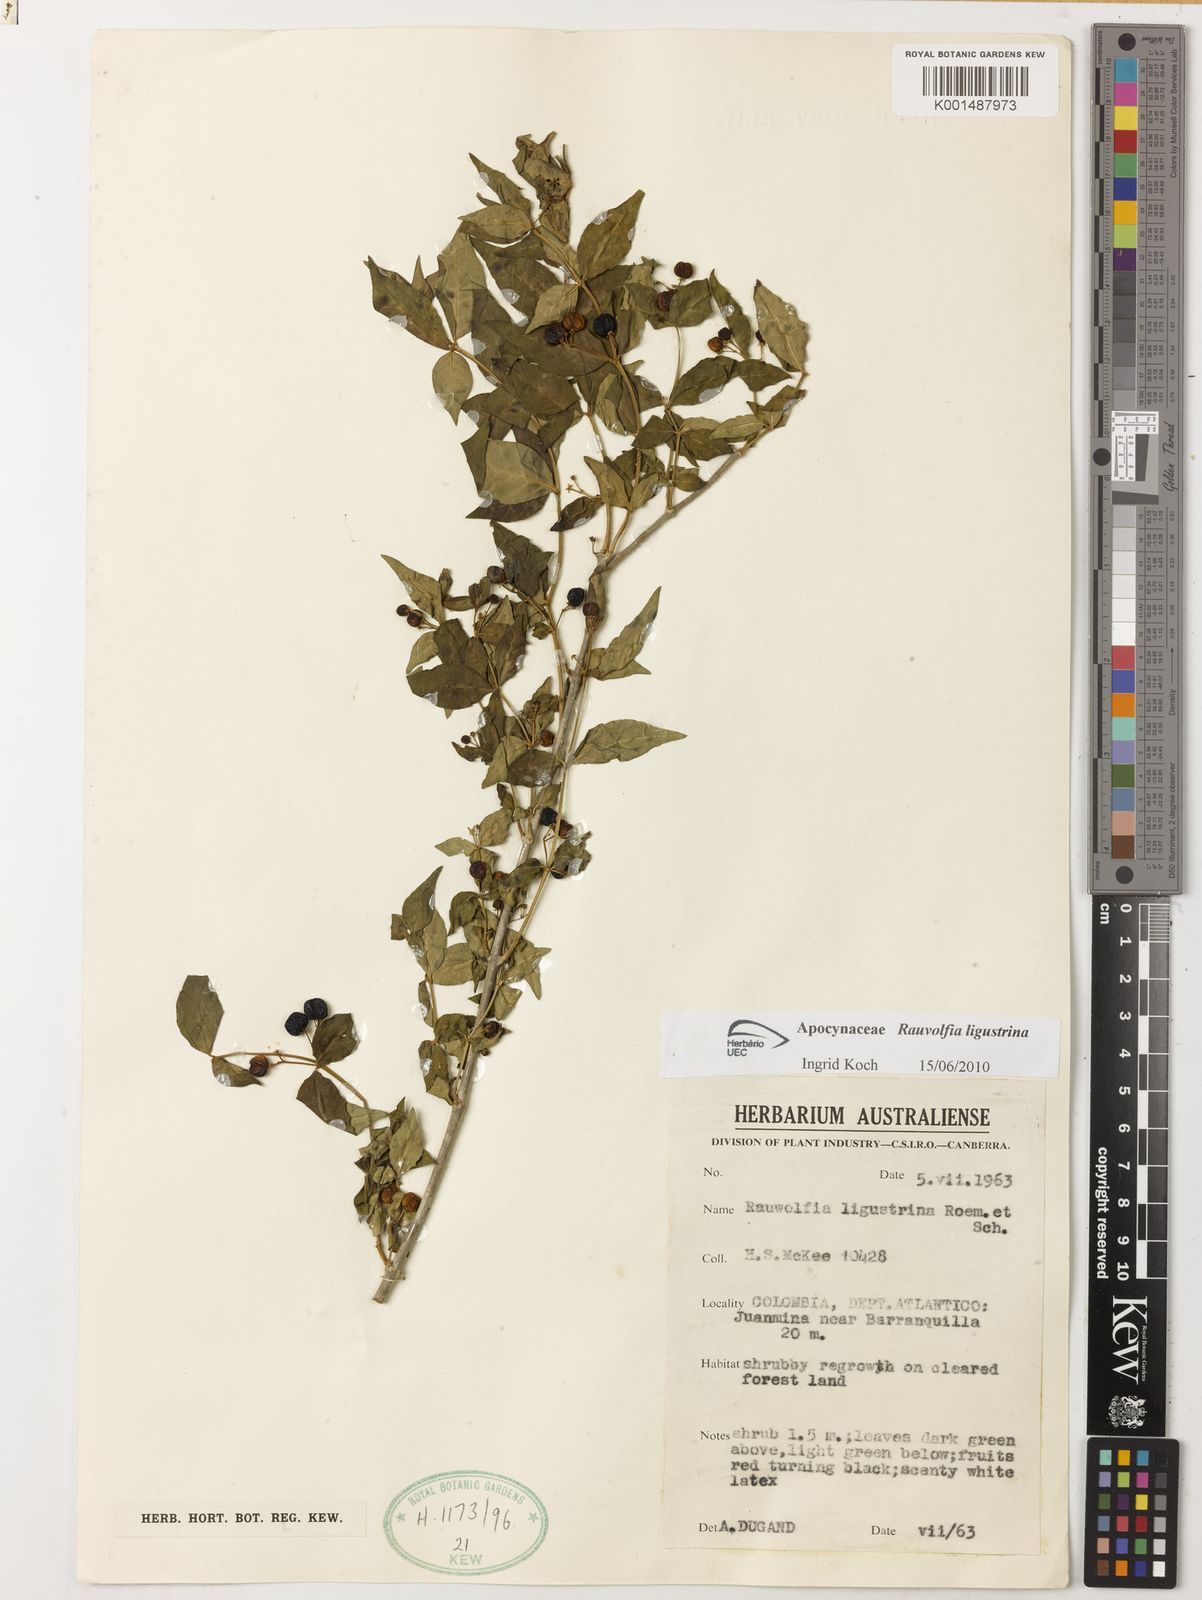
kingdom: Plantae
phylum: Tracheophyta
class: Magnoliopsida
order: Gentianales
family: Apocynaceae
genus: Rauvolfia
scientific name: Rauvolfia ligustrina
